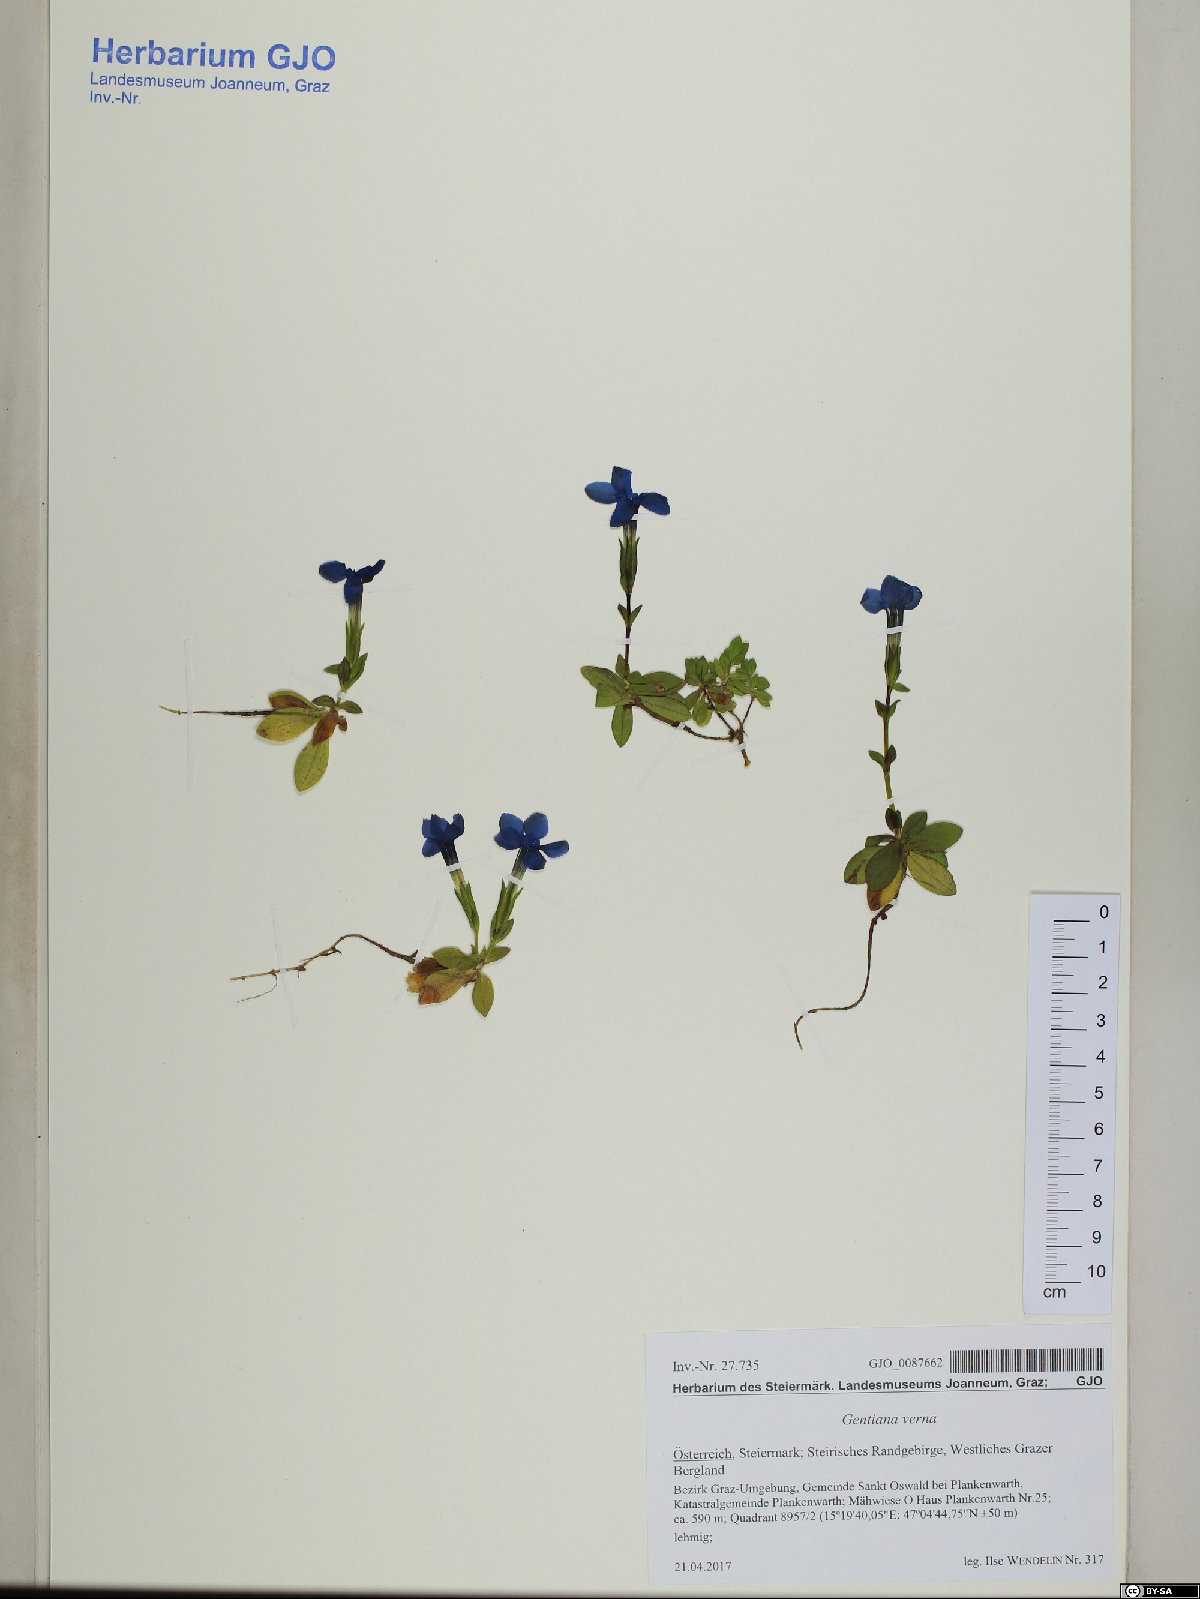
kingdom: Plantae
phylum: Tracheophyta
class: Magnoliopsida
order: Gentianales
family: Gentianaceae
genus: Gentiana
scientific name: Gentiana verna
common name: Spring gentian
